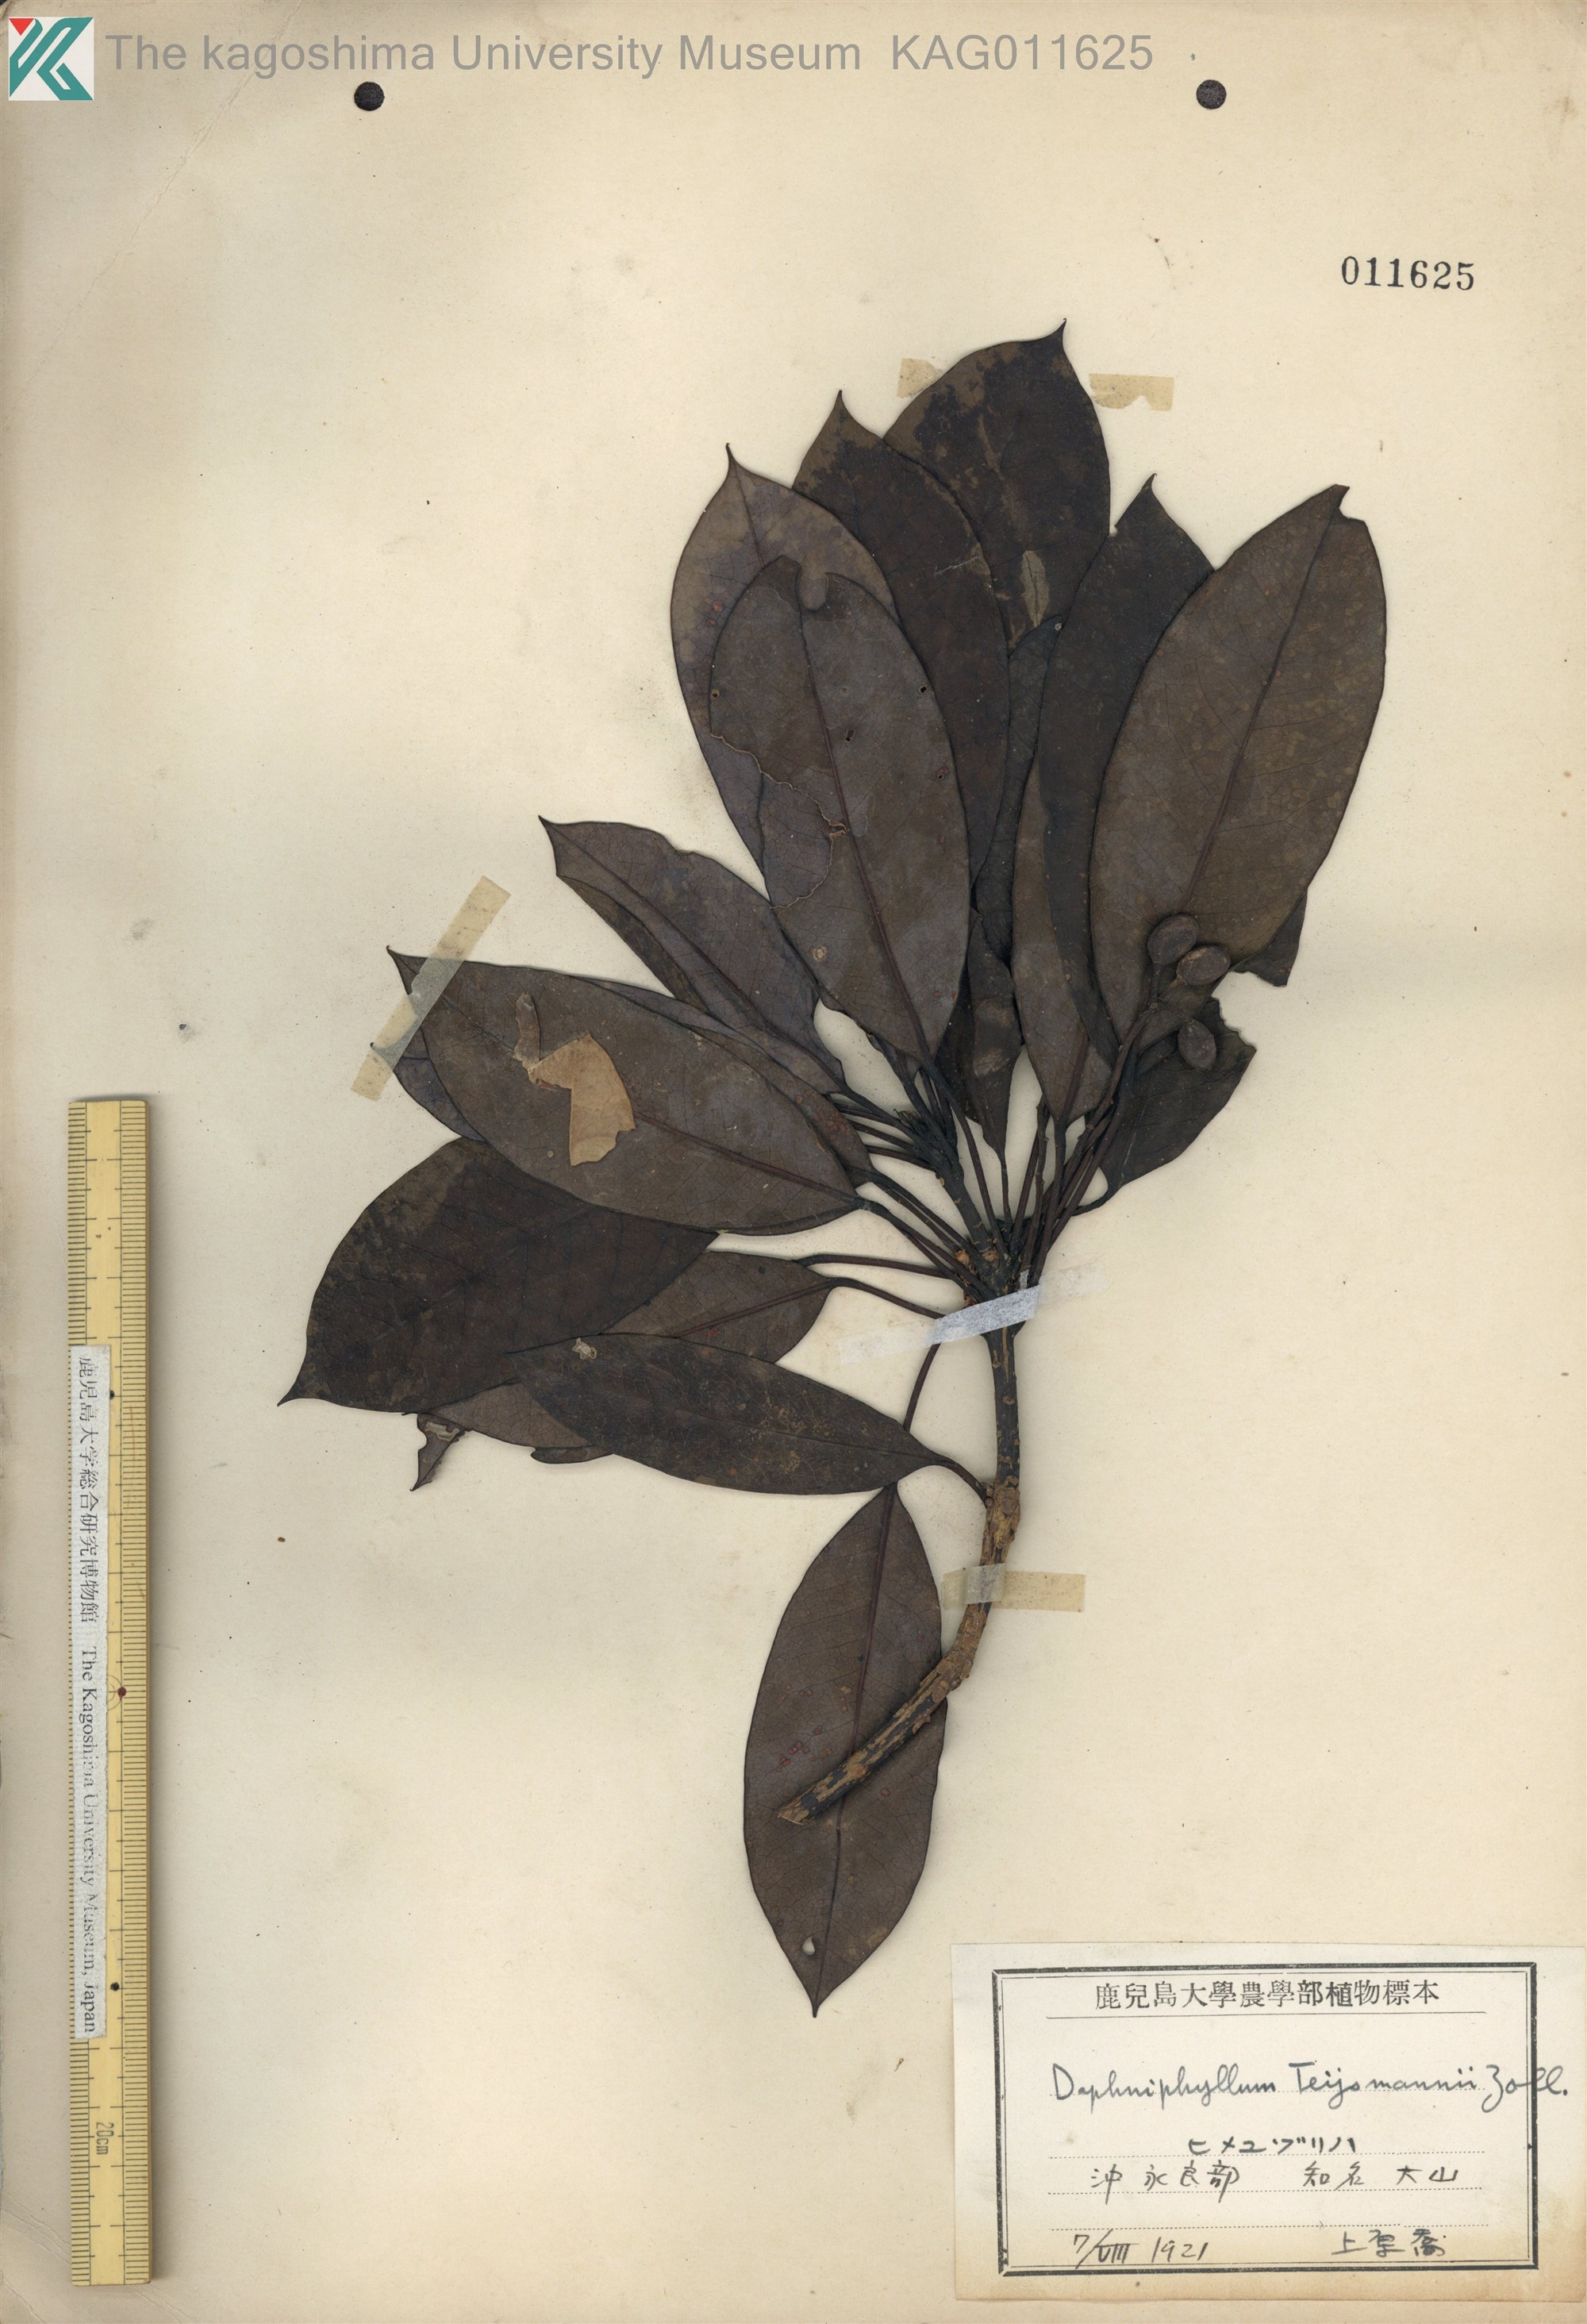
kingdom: Plantae
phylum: Tracheophyta
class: Magnoliopsida
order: Saxifragales
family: Daphniphyllaceae
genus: Daphniphyllum
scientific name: Daphniphyllum teijsmannii
